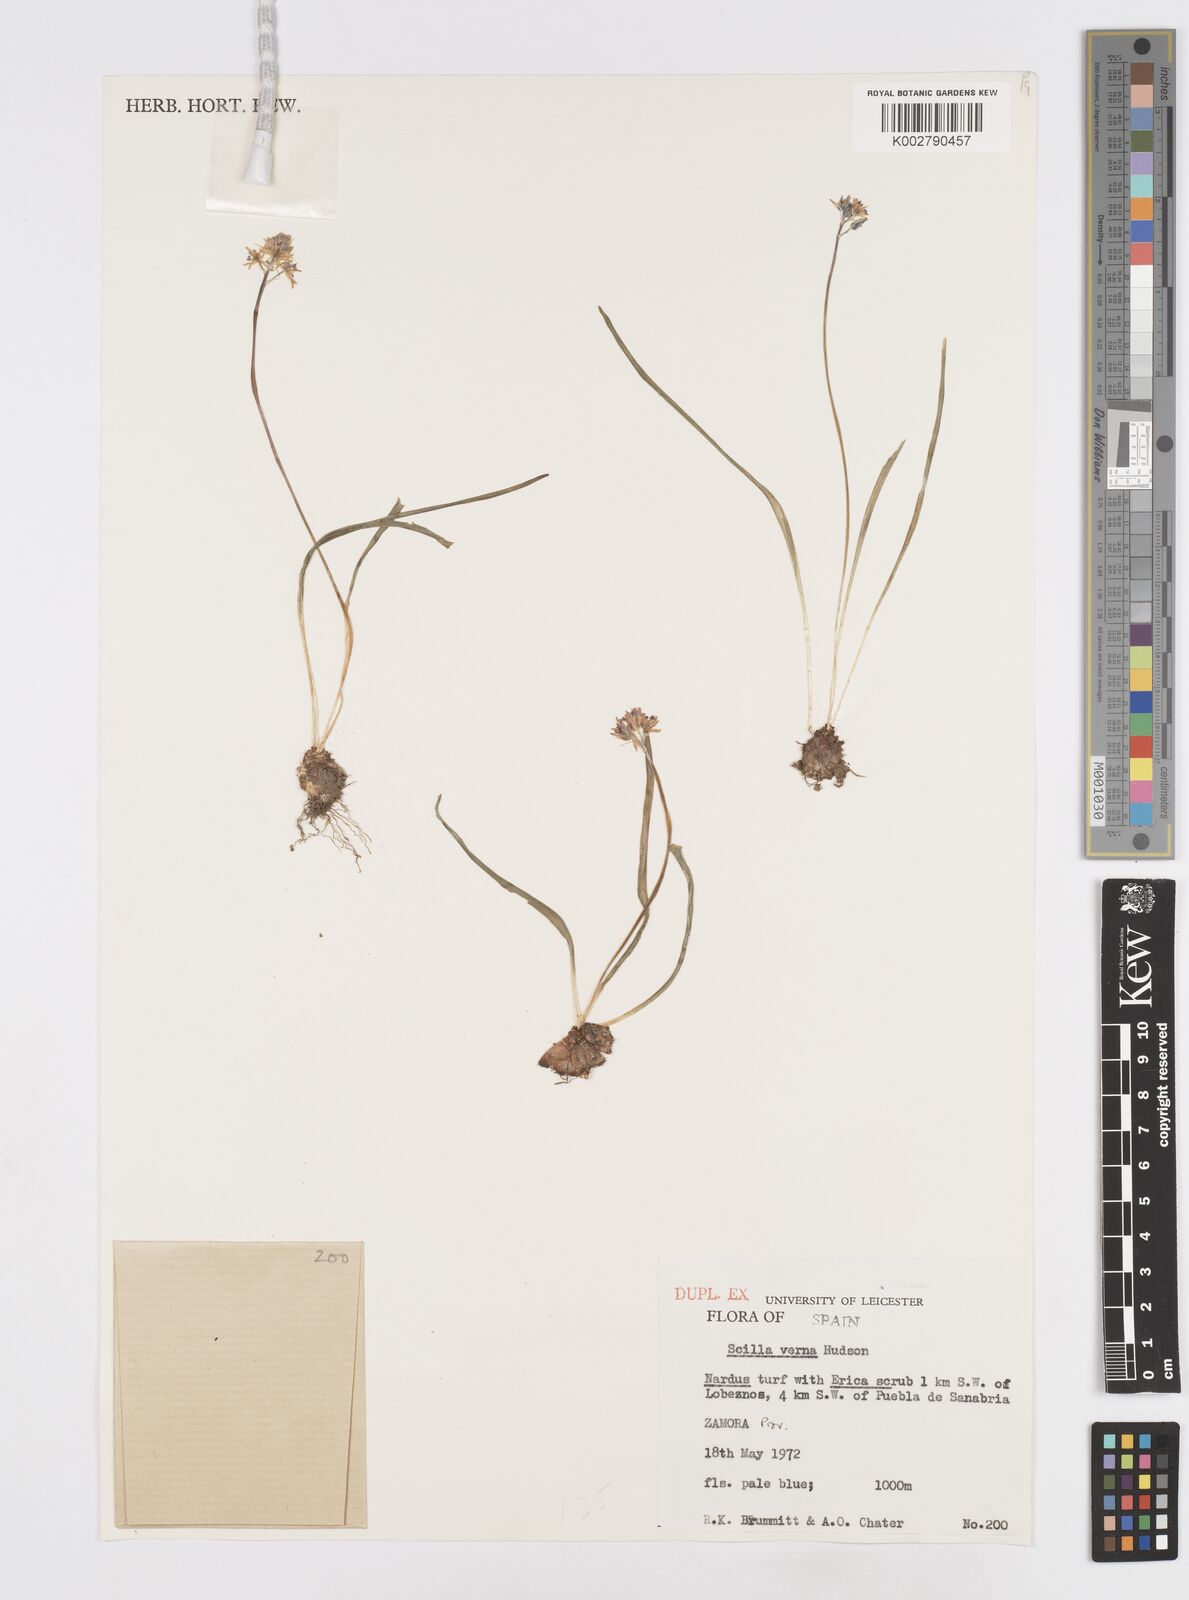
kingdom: Plantae
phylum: Tracheophyta
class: Liliopsida
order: Asparagales
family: Asparagaceae
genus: Scilla
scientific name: Scilla verna
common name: Spring squill
